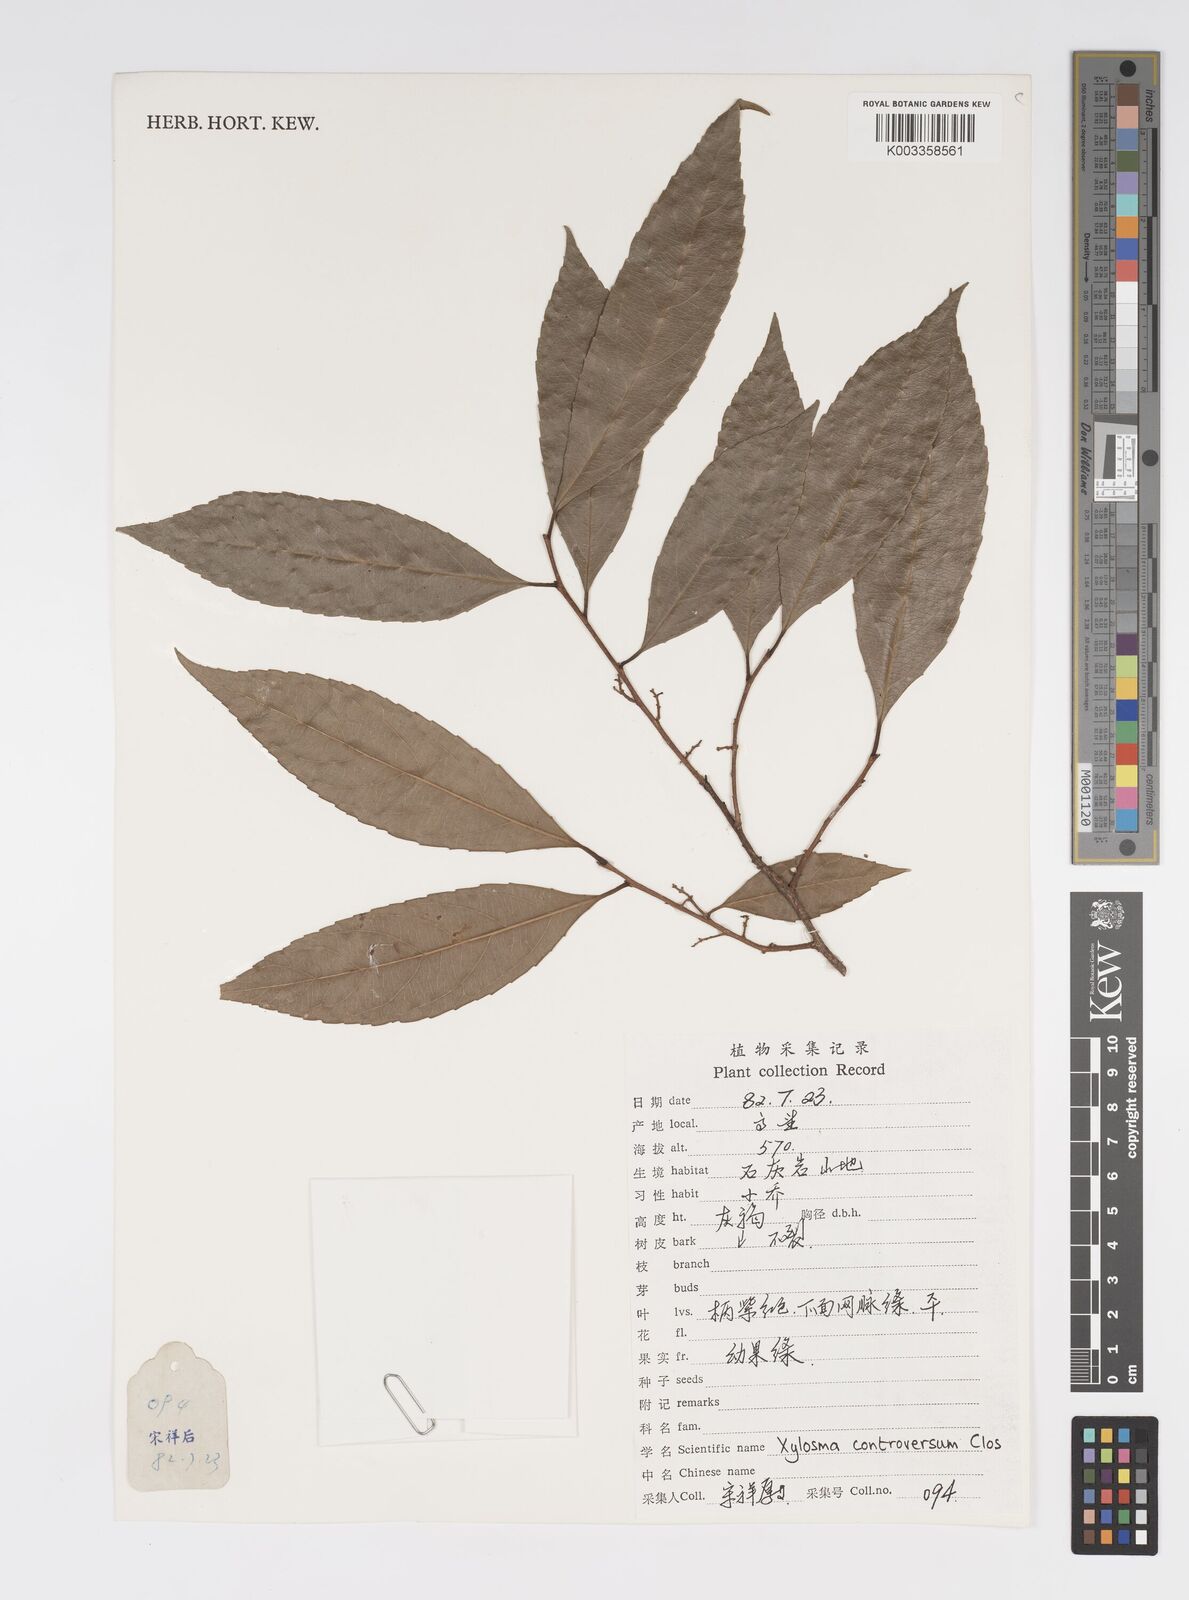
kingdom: Plantae
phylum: Tracheophyta
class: Magnoliopsida
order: Malpighiales
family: Salicaceae
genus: Xylosma
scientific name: Xylosma controversa
